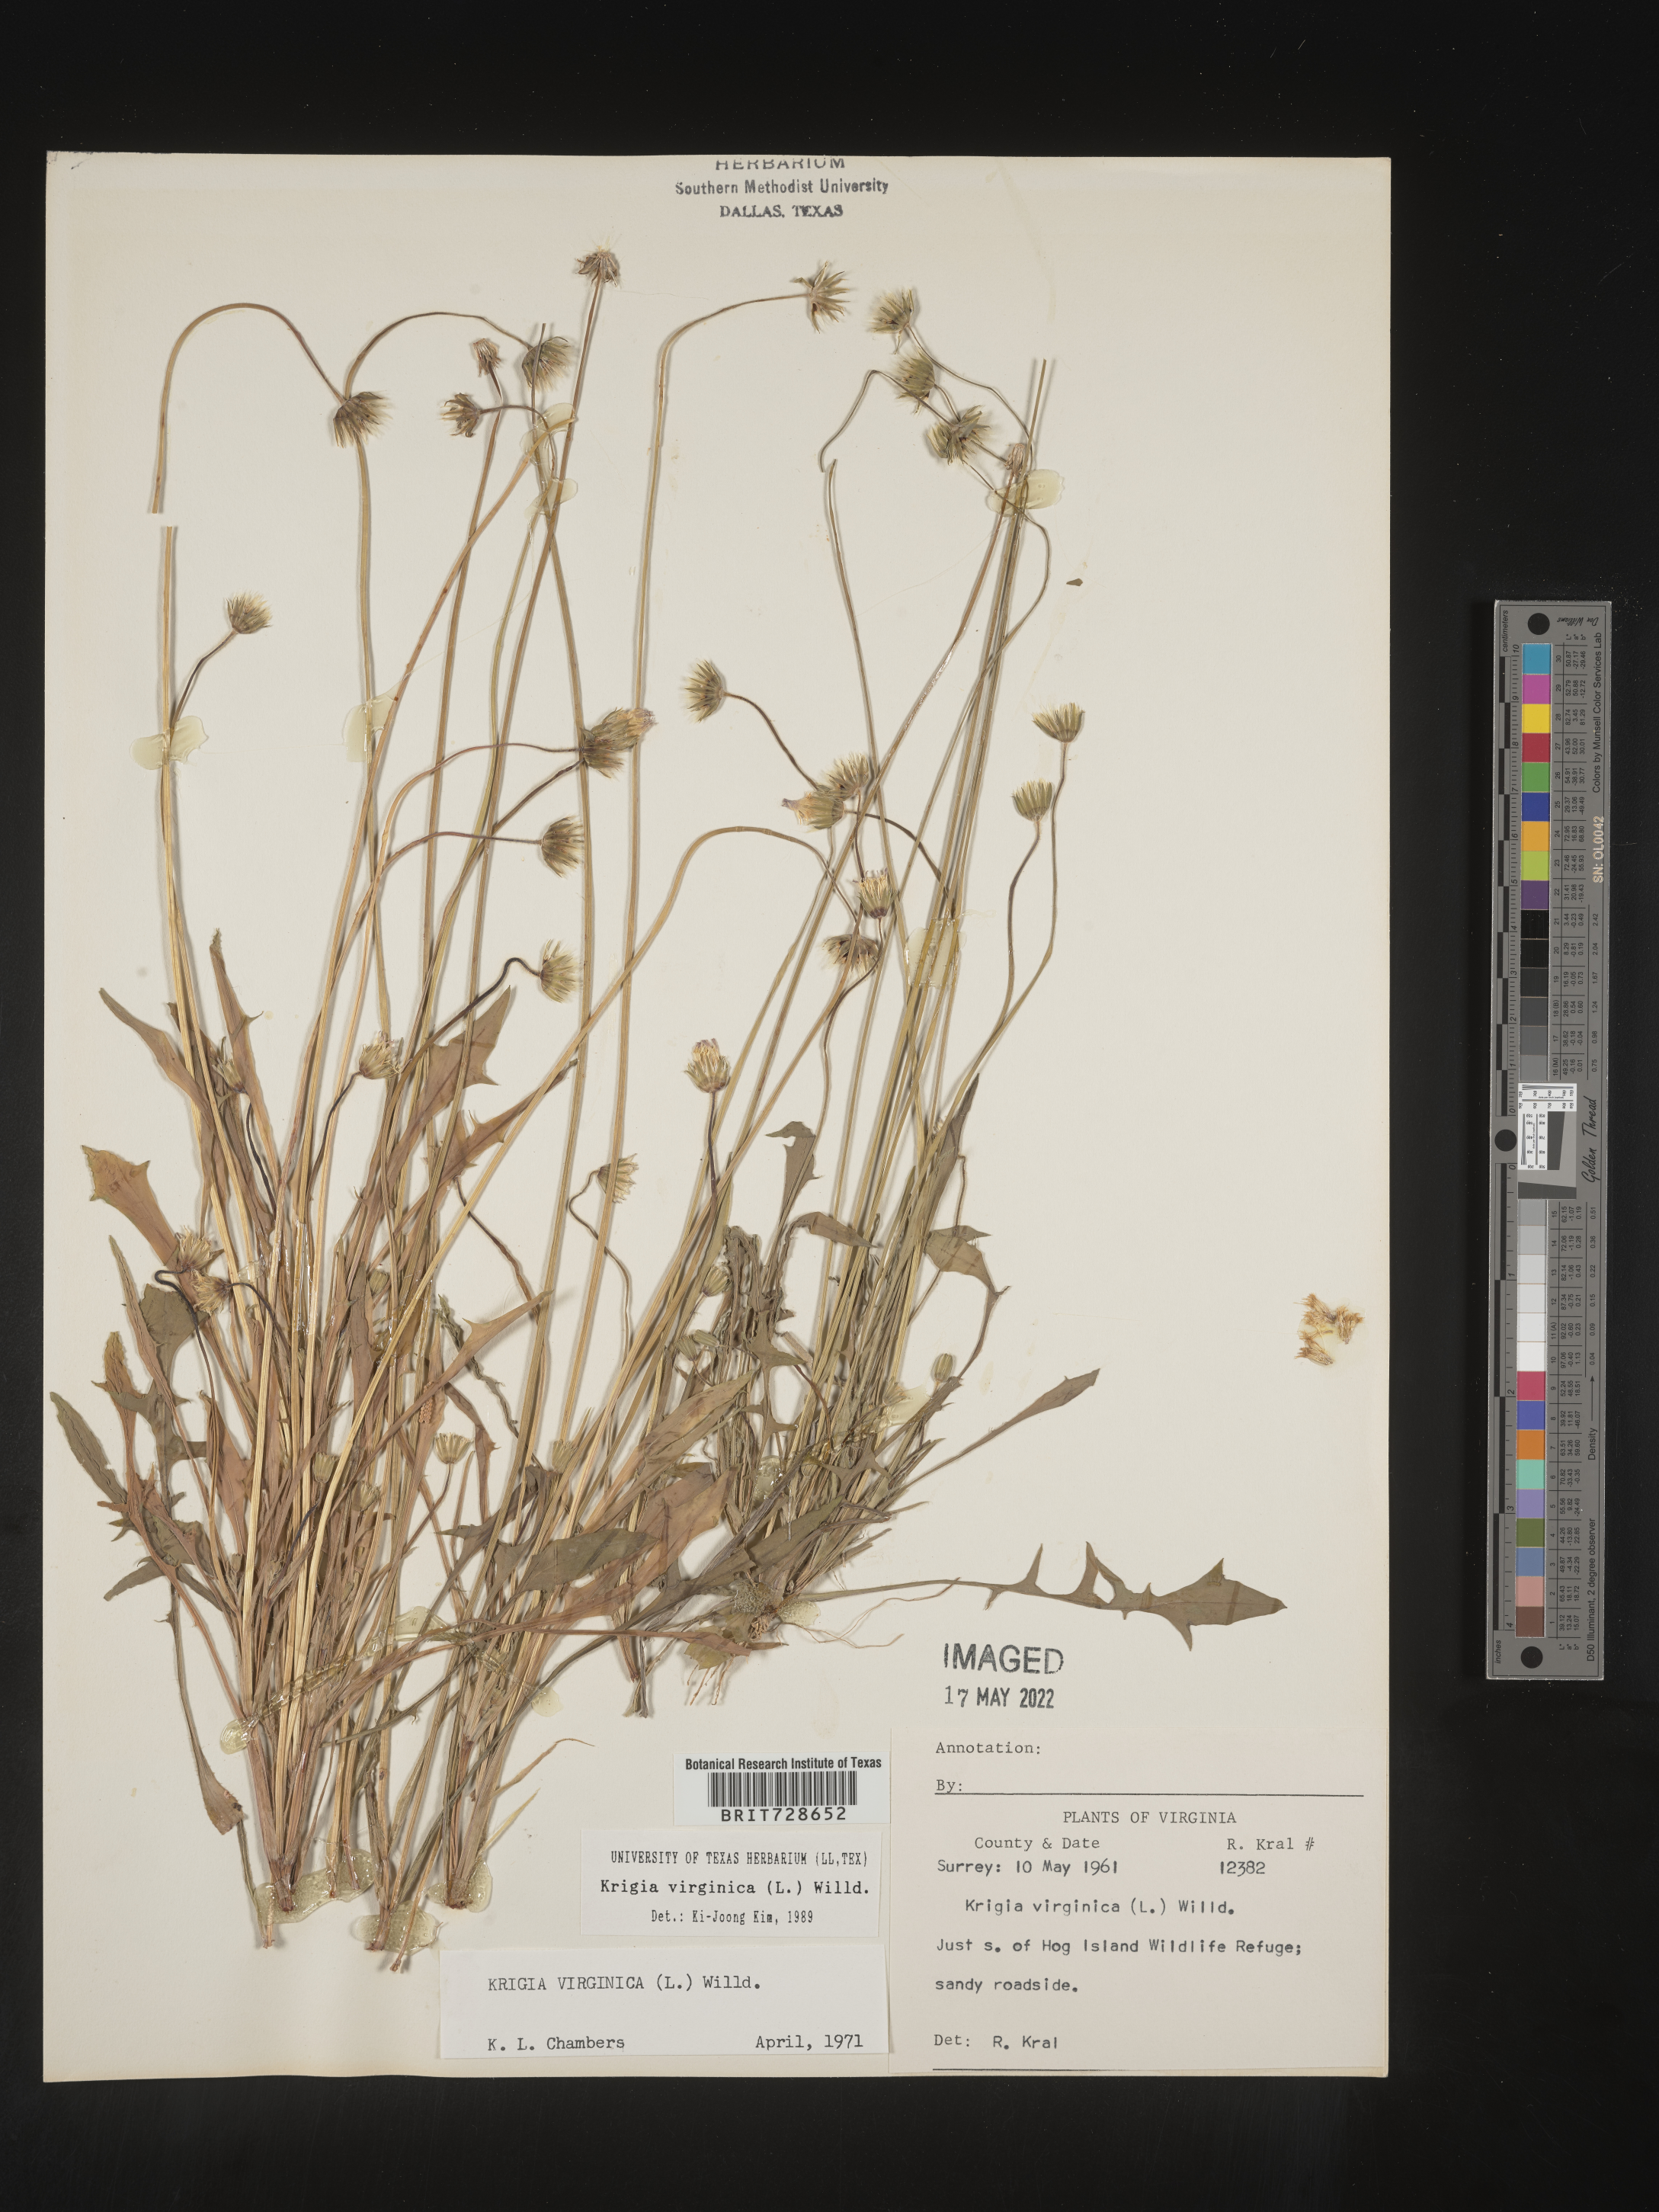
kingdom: Plantae
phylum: Tracheophyta
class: Magnoliopsida
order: Asterales
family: Asteraceae
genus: Krigia
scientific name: Krigia virginica
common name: Virginia dwarf-dandelion
